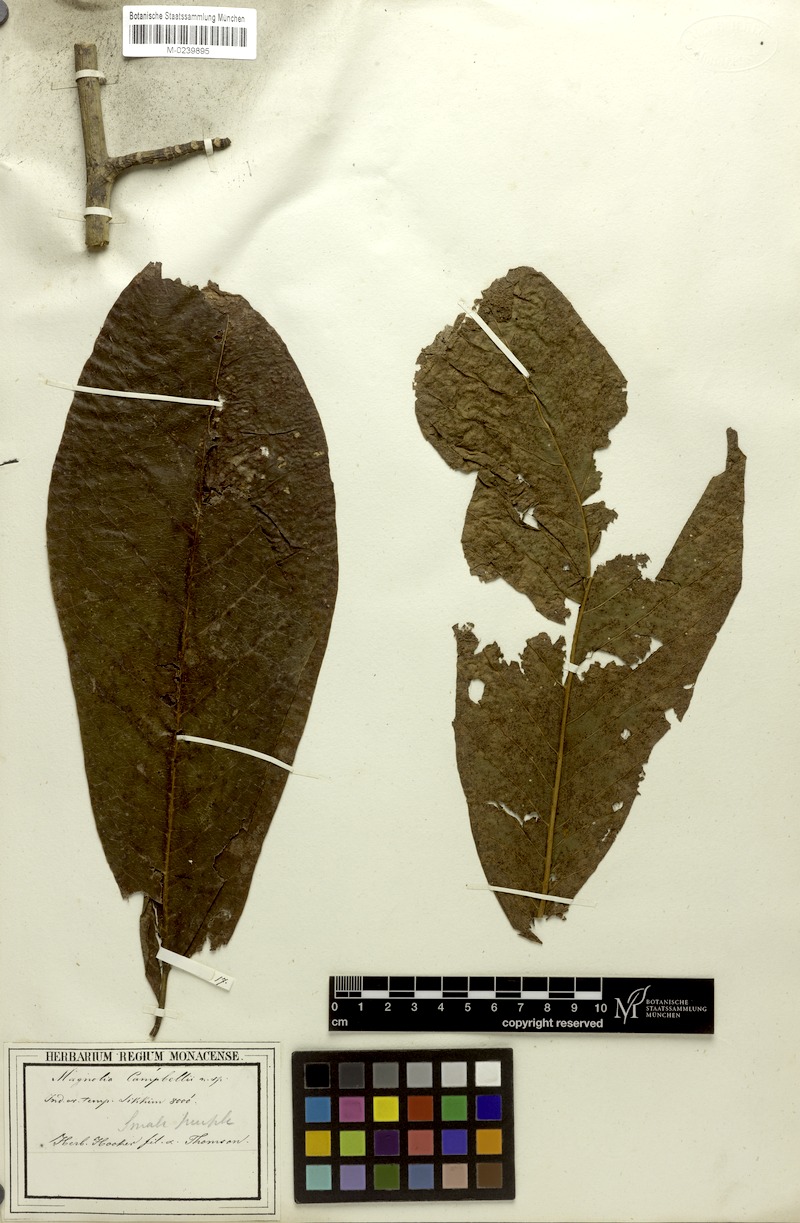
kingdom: Plantae
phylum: Tracheophyta
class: Magnoliopsida
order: Magnoliales
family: Magnoliaceae
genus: Magnolia
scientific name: Magnolia campbellii
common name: Campbell's magnolia
